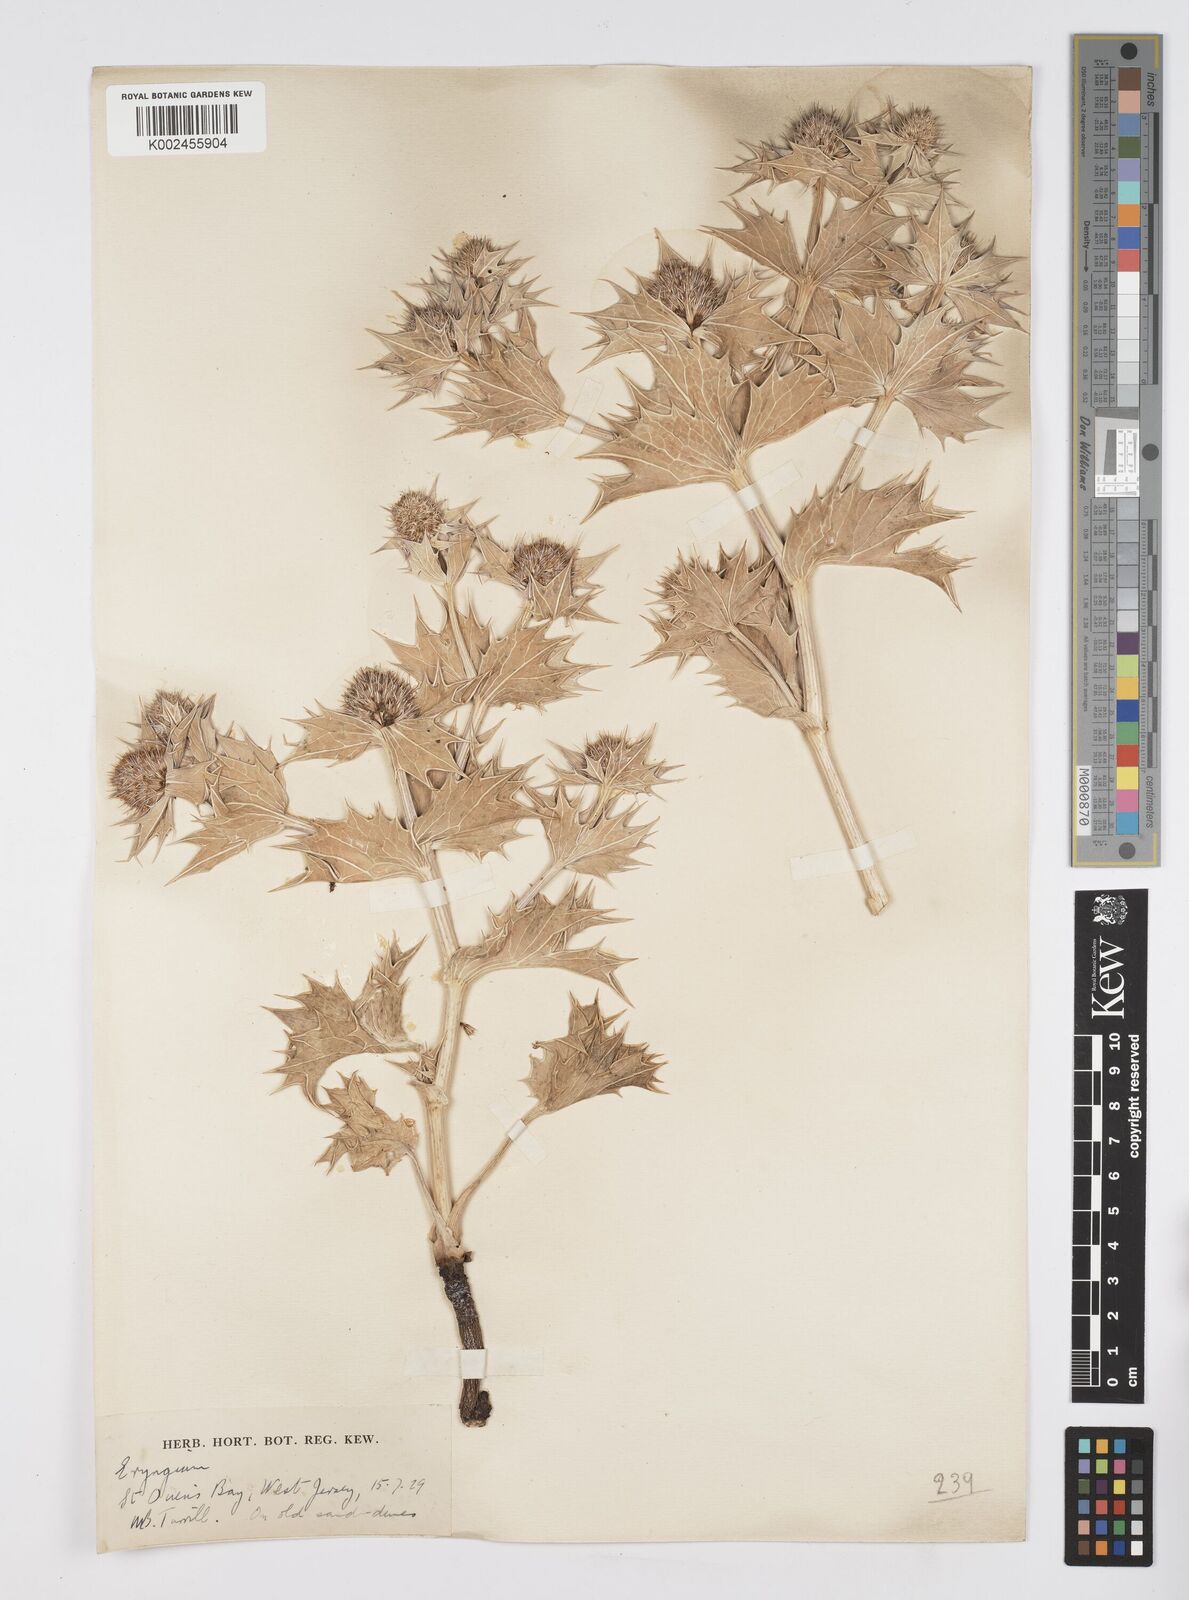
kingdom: Plantae
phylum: Tracheophyta
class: Magnoliopsida
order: Apiales
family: Apiaceae
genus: Eryngium
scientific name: Eryngium maritimum
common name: Sea-holly
